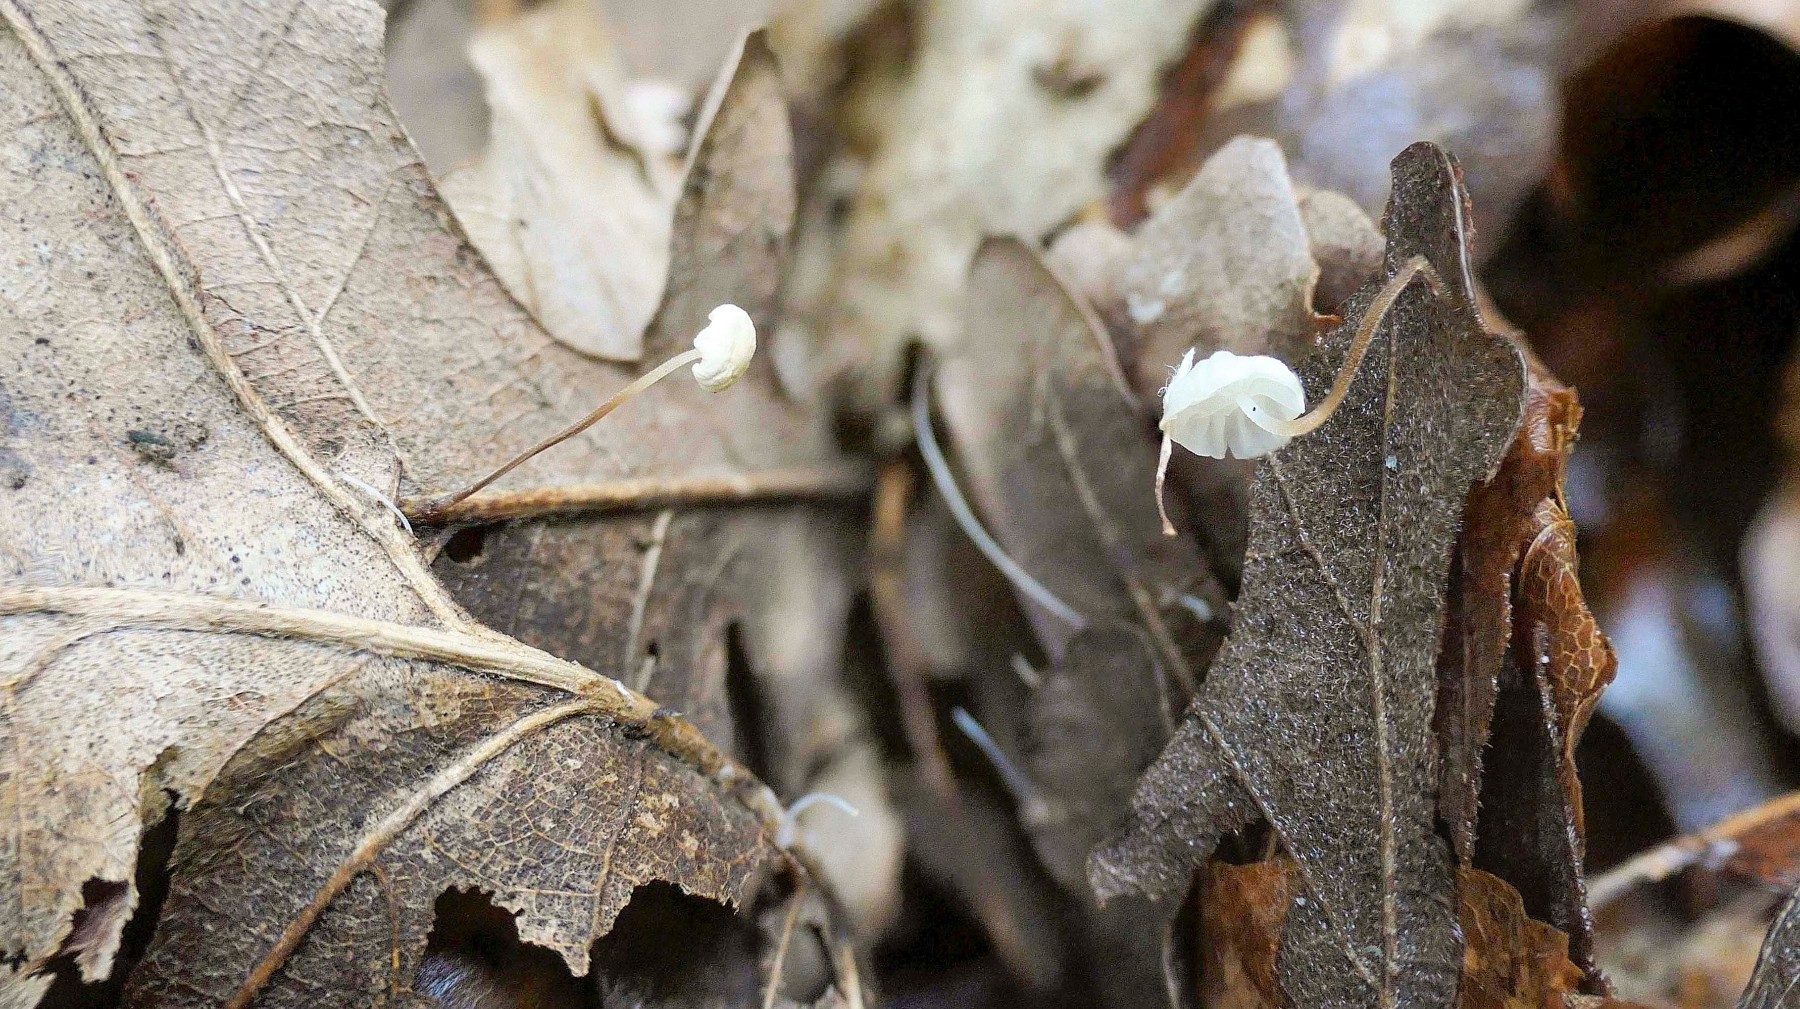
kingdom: Fungi
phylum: Basidiomycota
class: Agaricomycetes
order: Agaricales
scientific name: Agaricales
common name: champignonordenen
